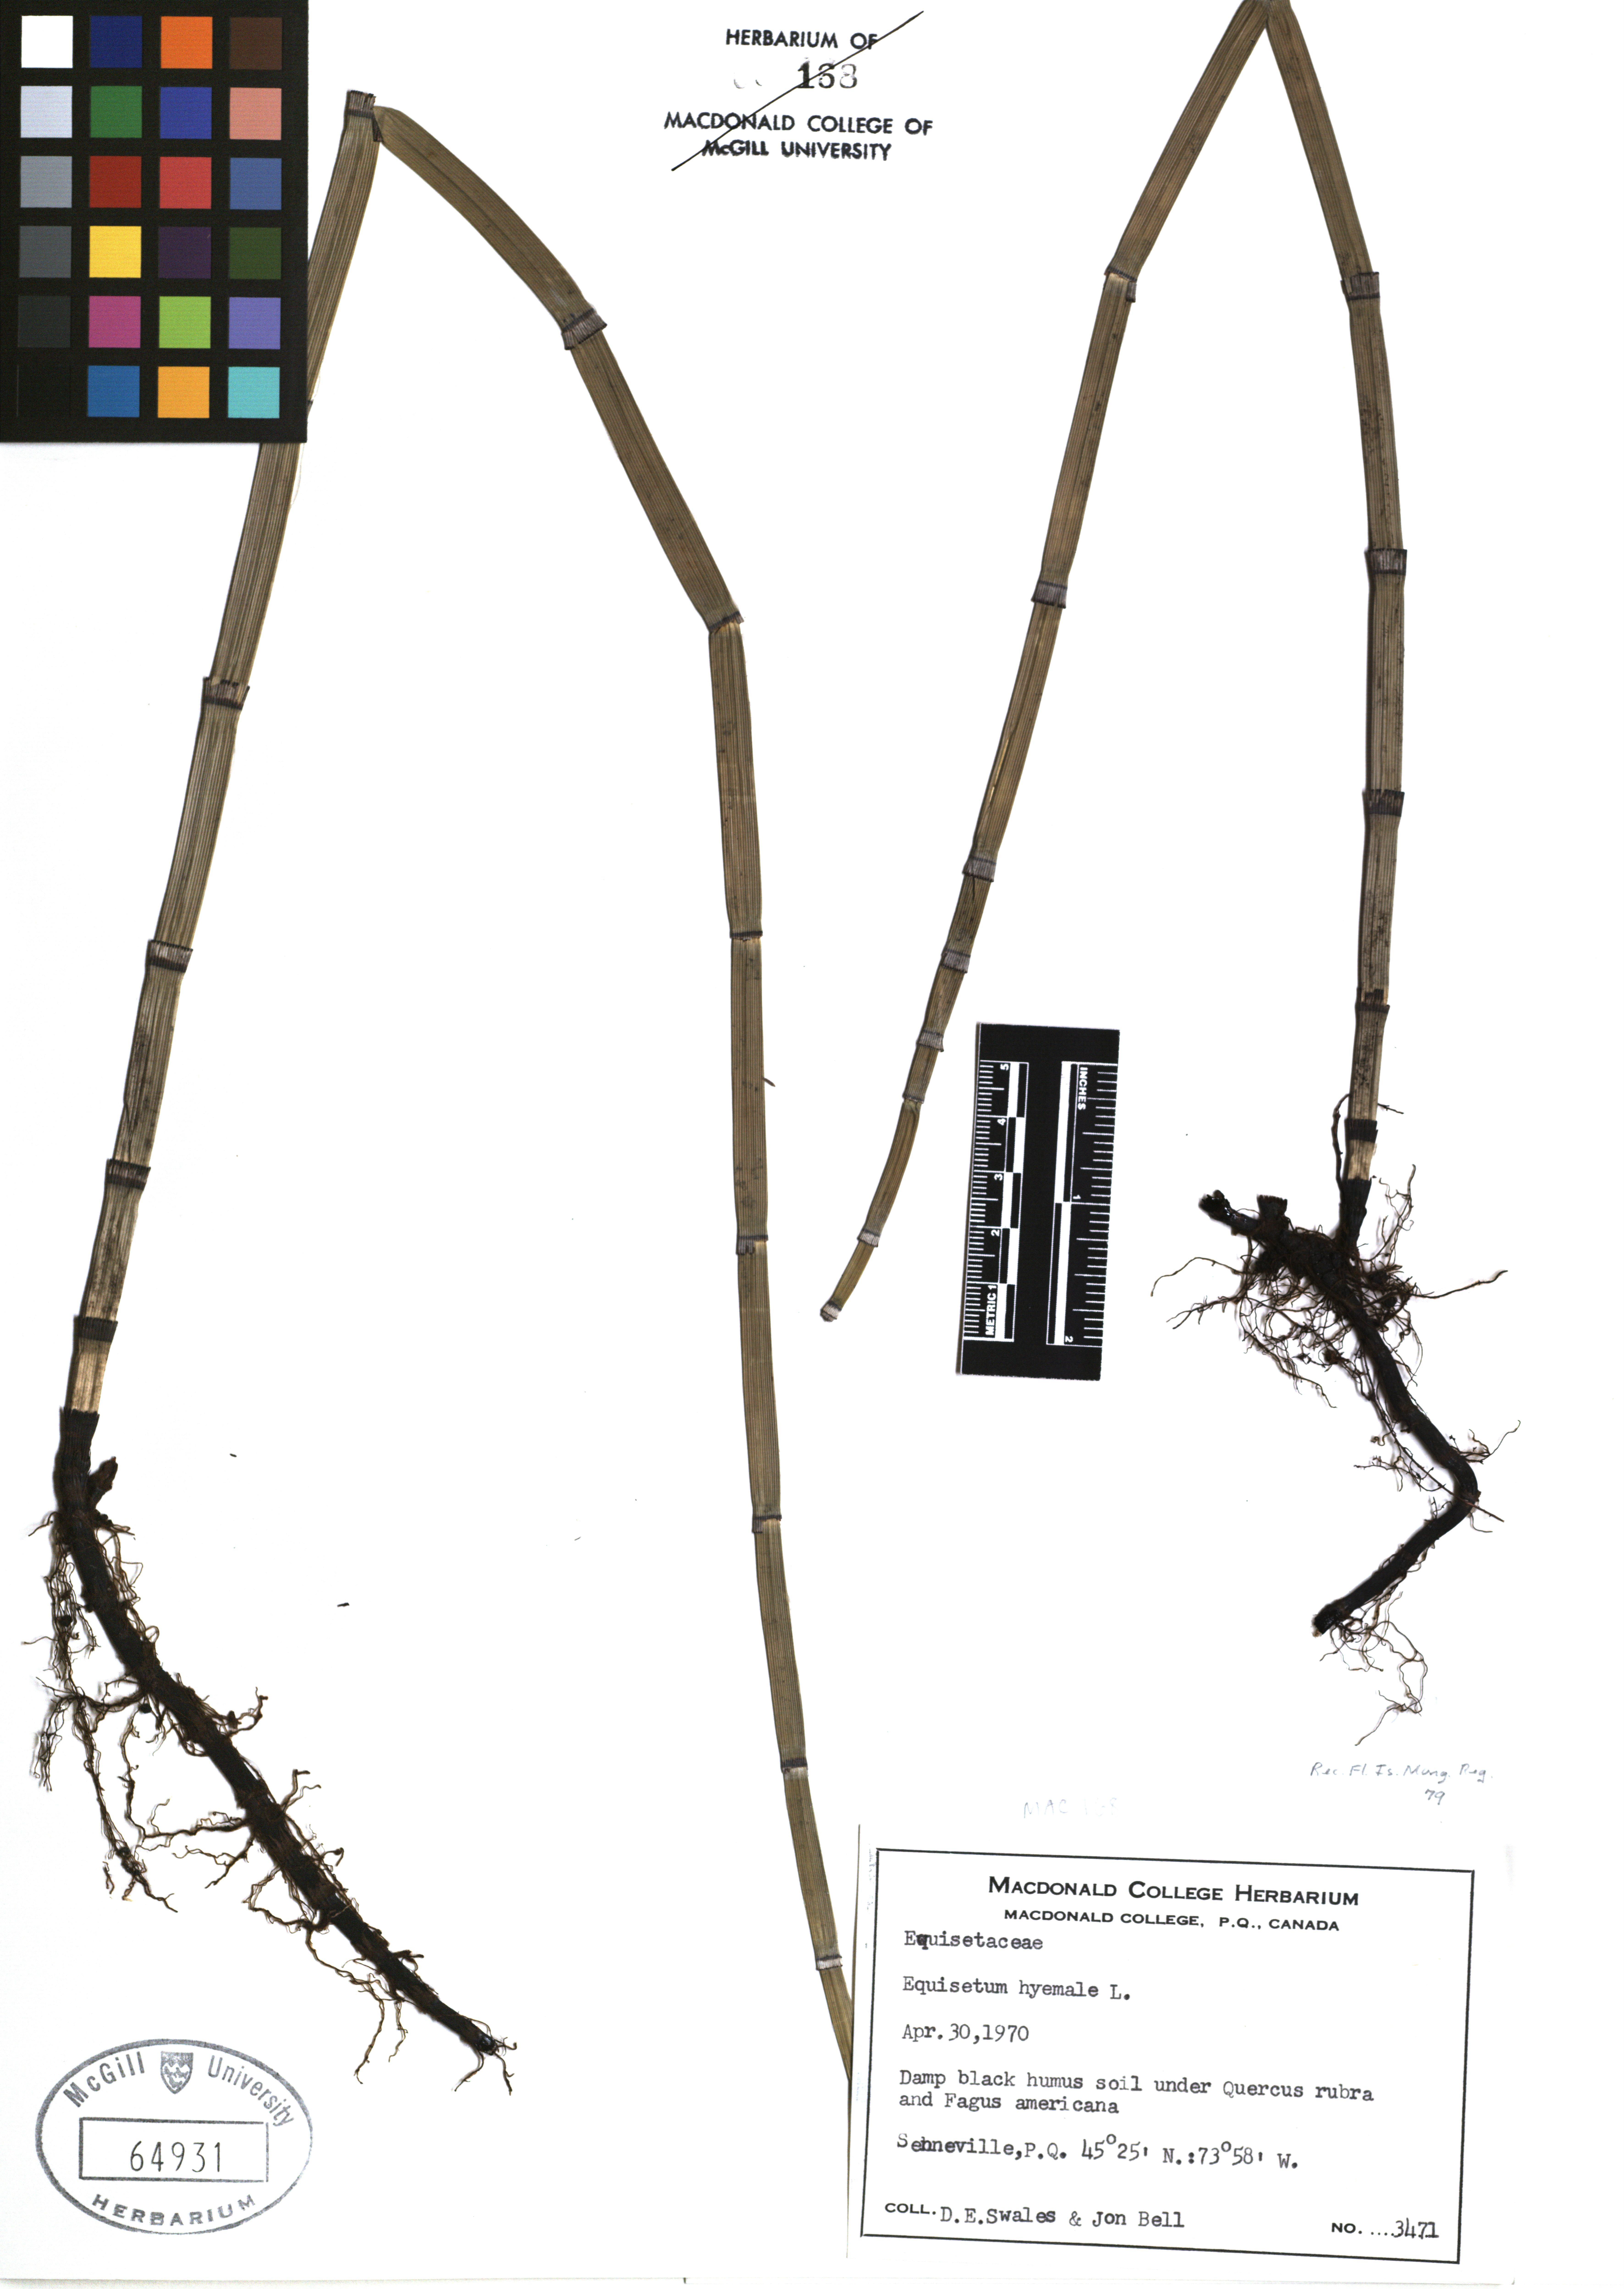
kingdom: Plantae
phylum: Tracheophyta
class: Polypodiopsida
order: Equisetales
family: Equisetaceae
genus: Equisetum
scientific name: Equisetum hyemale
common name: Rough horsetail
